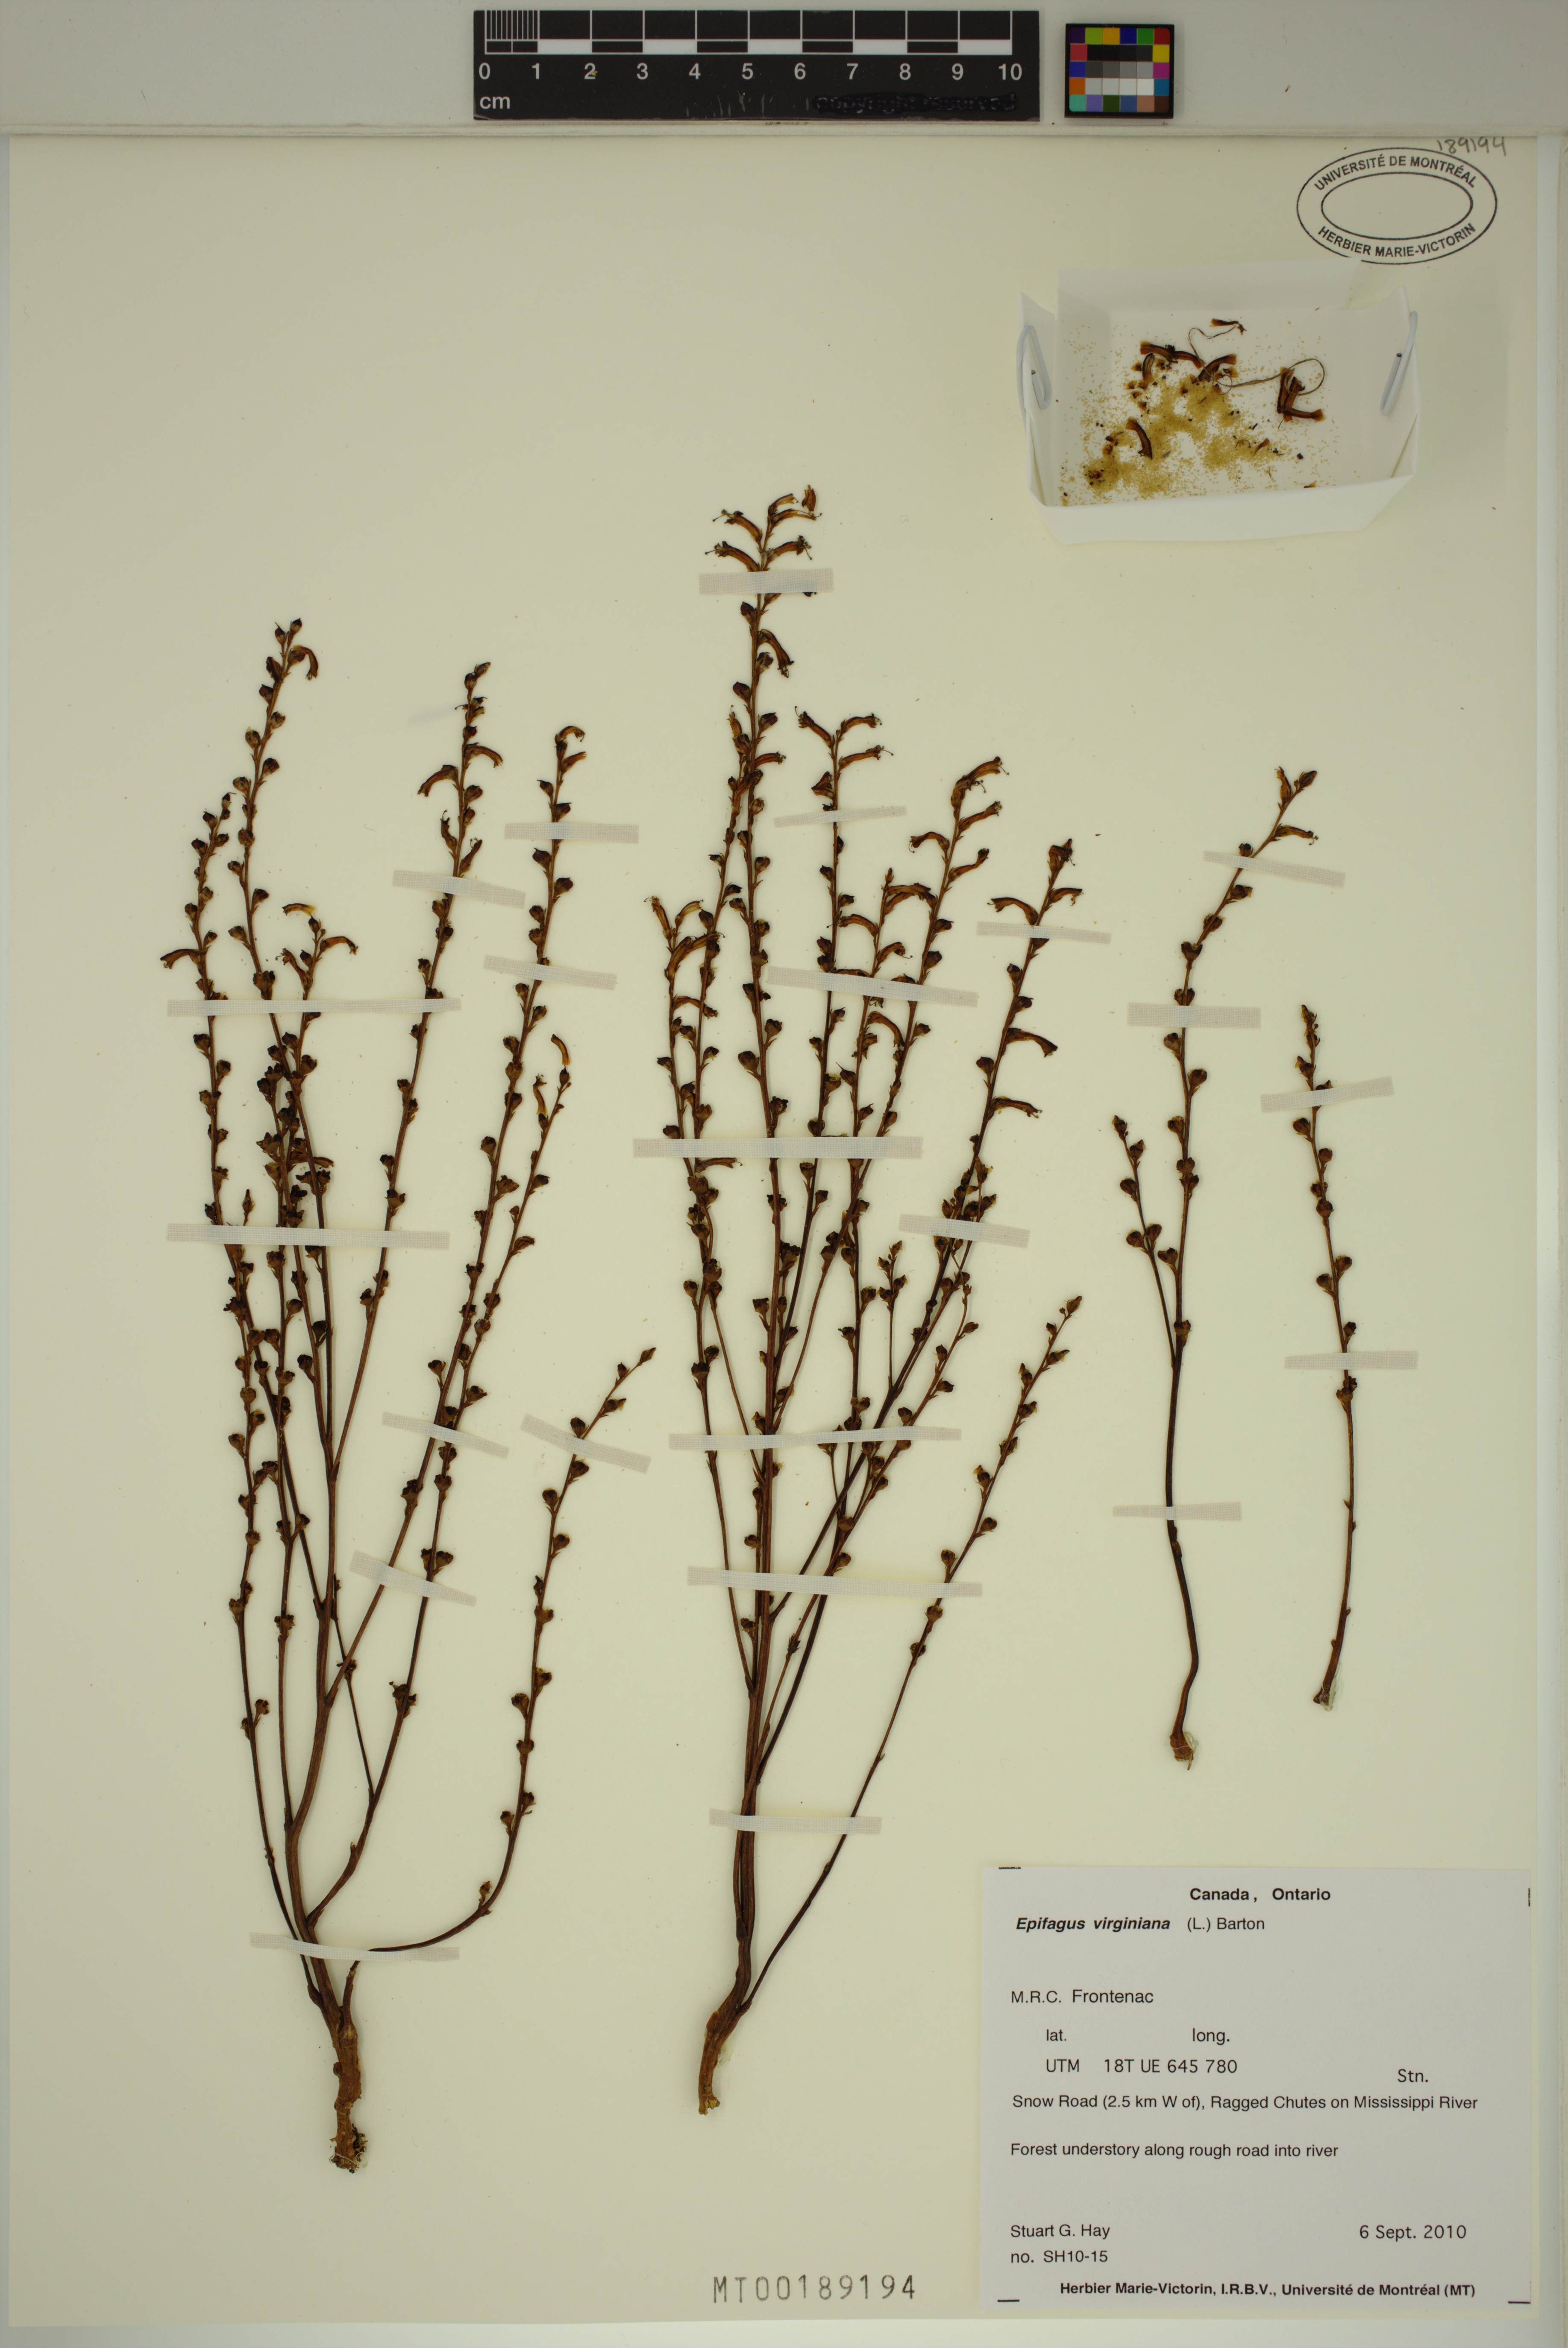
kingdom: Plantae
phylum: Tracheophyta
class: Magnoliopsida
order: Lamiales
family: Orobanchaceae
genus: Epifagus
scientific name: Epifagus virginiana
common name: Beechdrops
